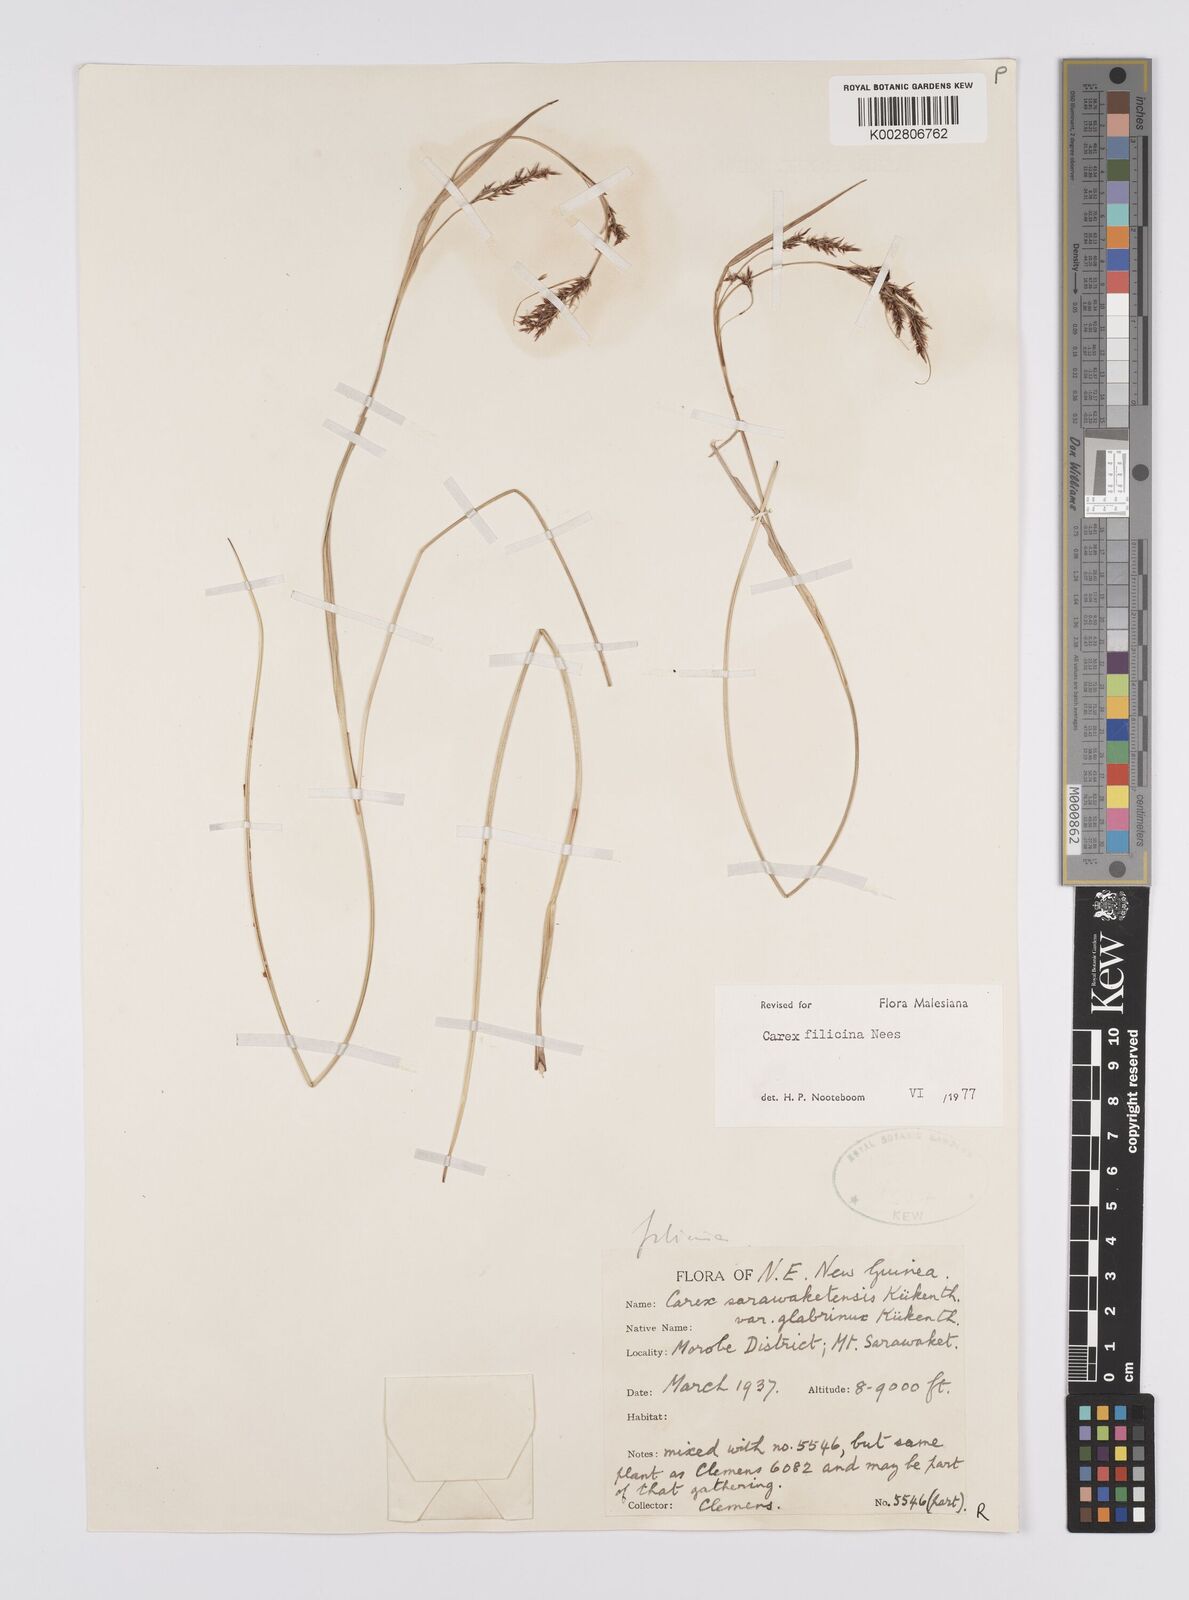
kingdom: Plantae
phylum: Tracheophyta
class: Liliopsida
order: Poales
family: Cyperaceae
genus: Carex
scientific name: Carex filicina
